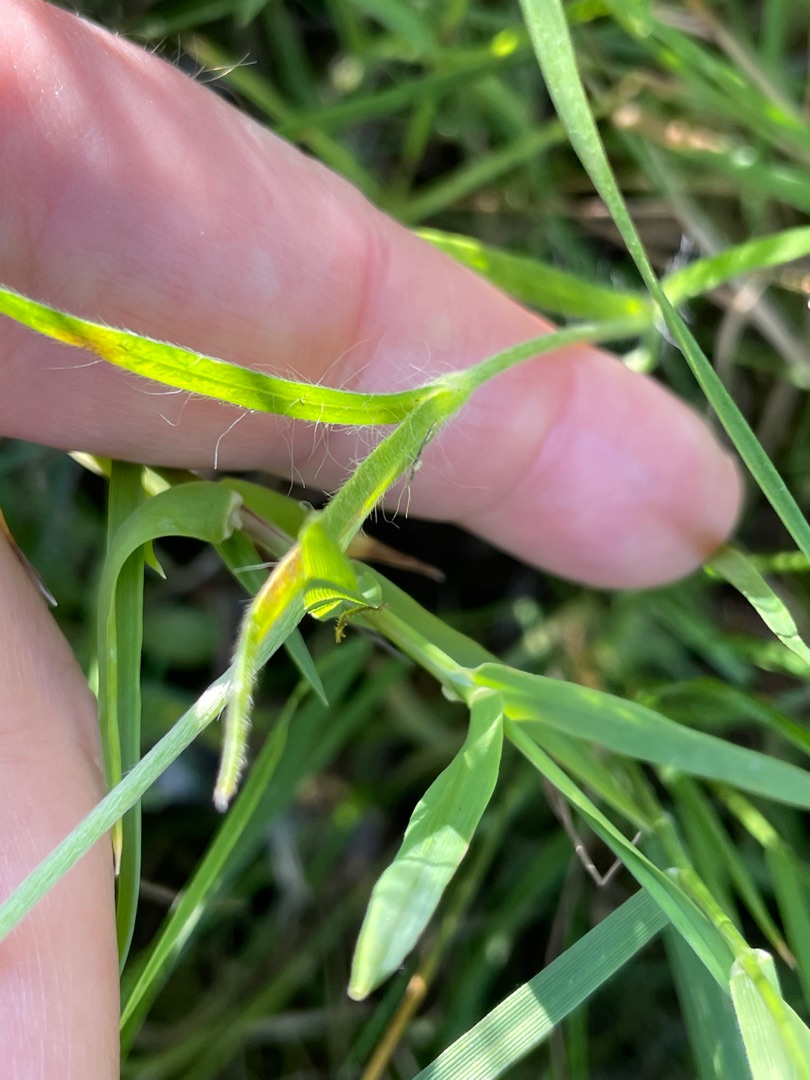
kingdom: Plantae
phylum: Tracheophyta
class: Magnoliopsida
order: Caryophyllales
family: Caryophyllaceae
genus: Agrostemma
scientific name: Agrostemma githago
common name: Klinte
